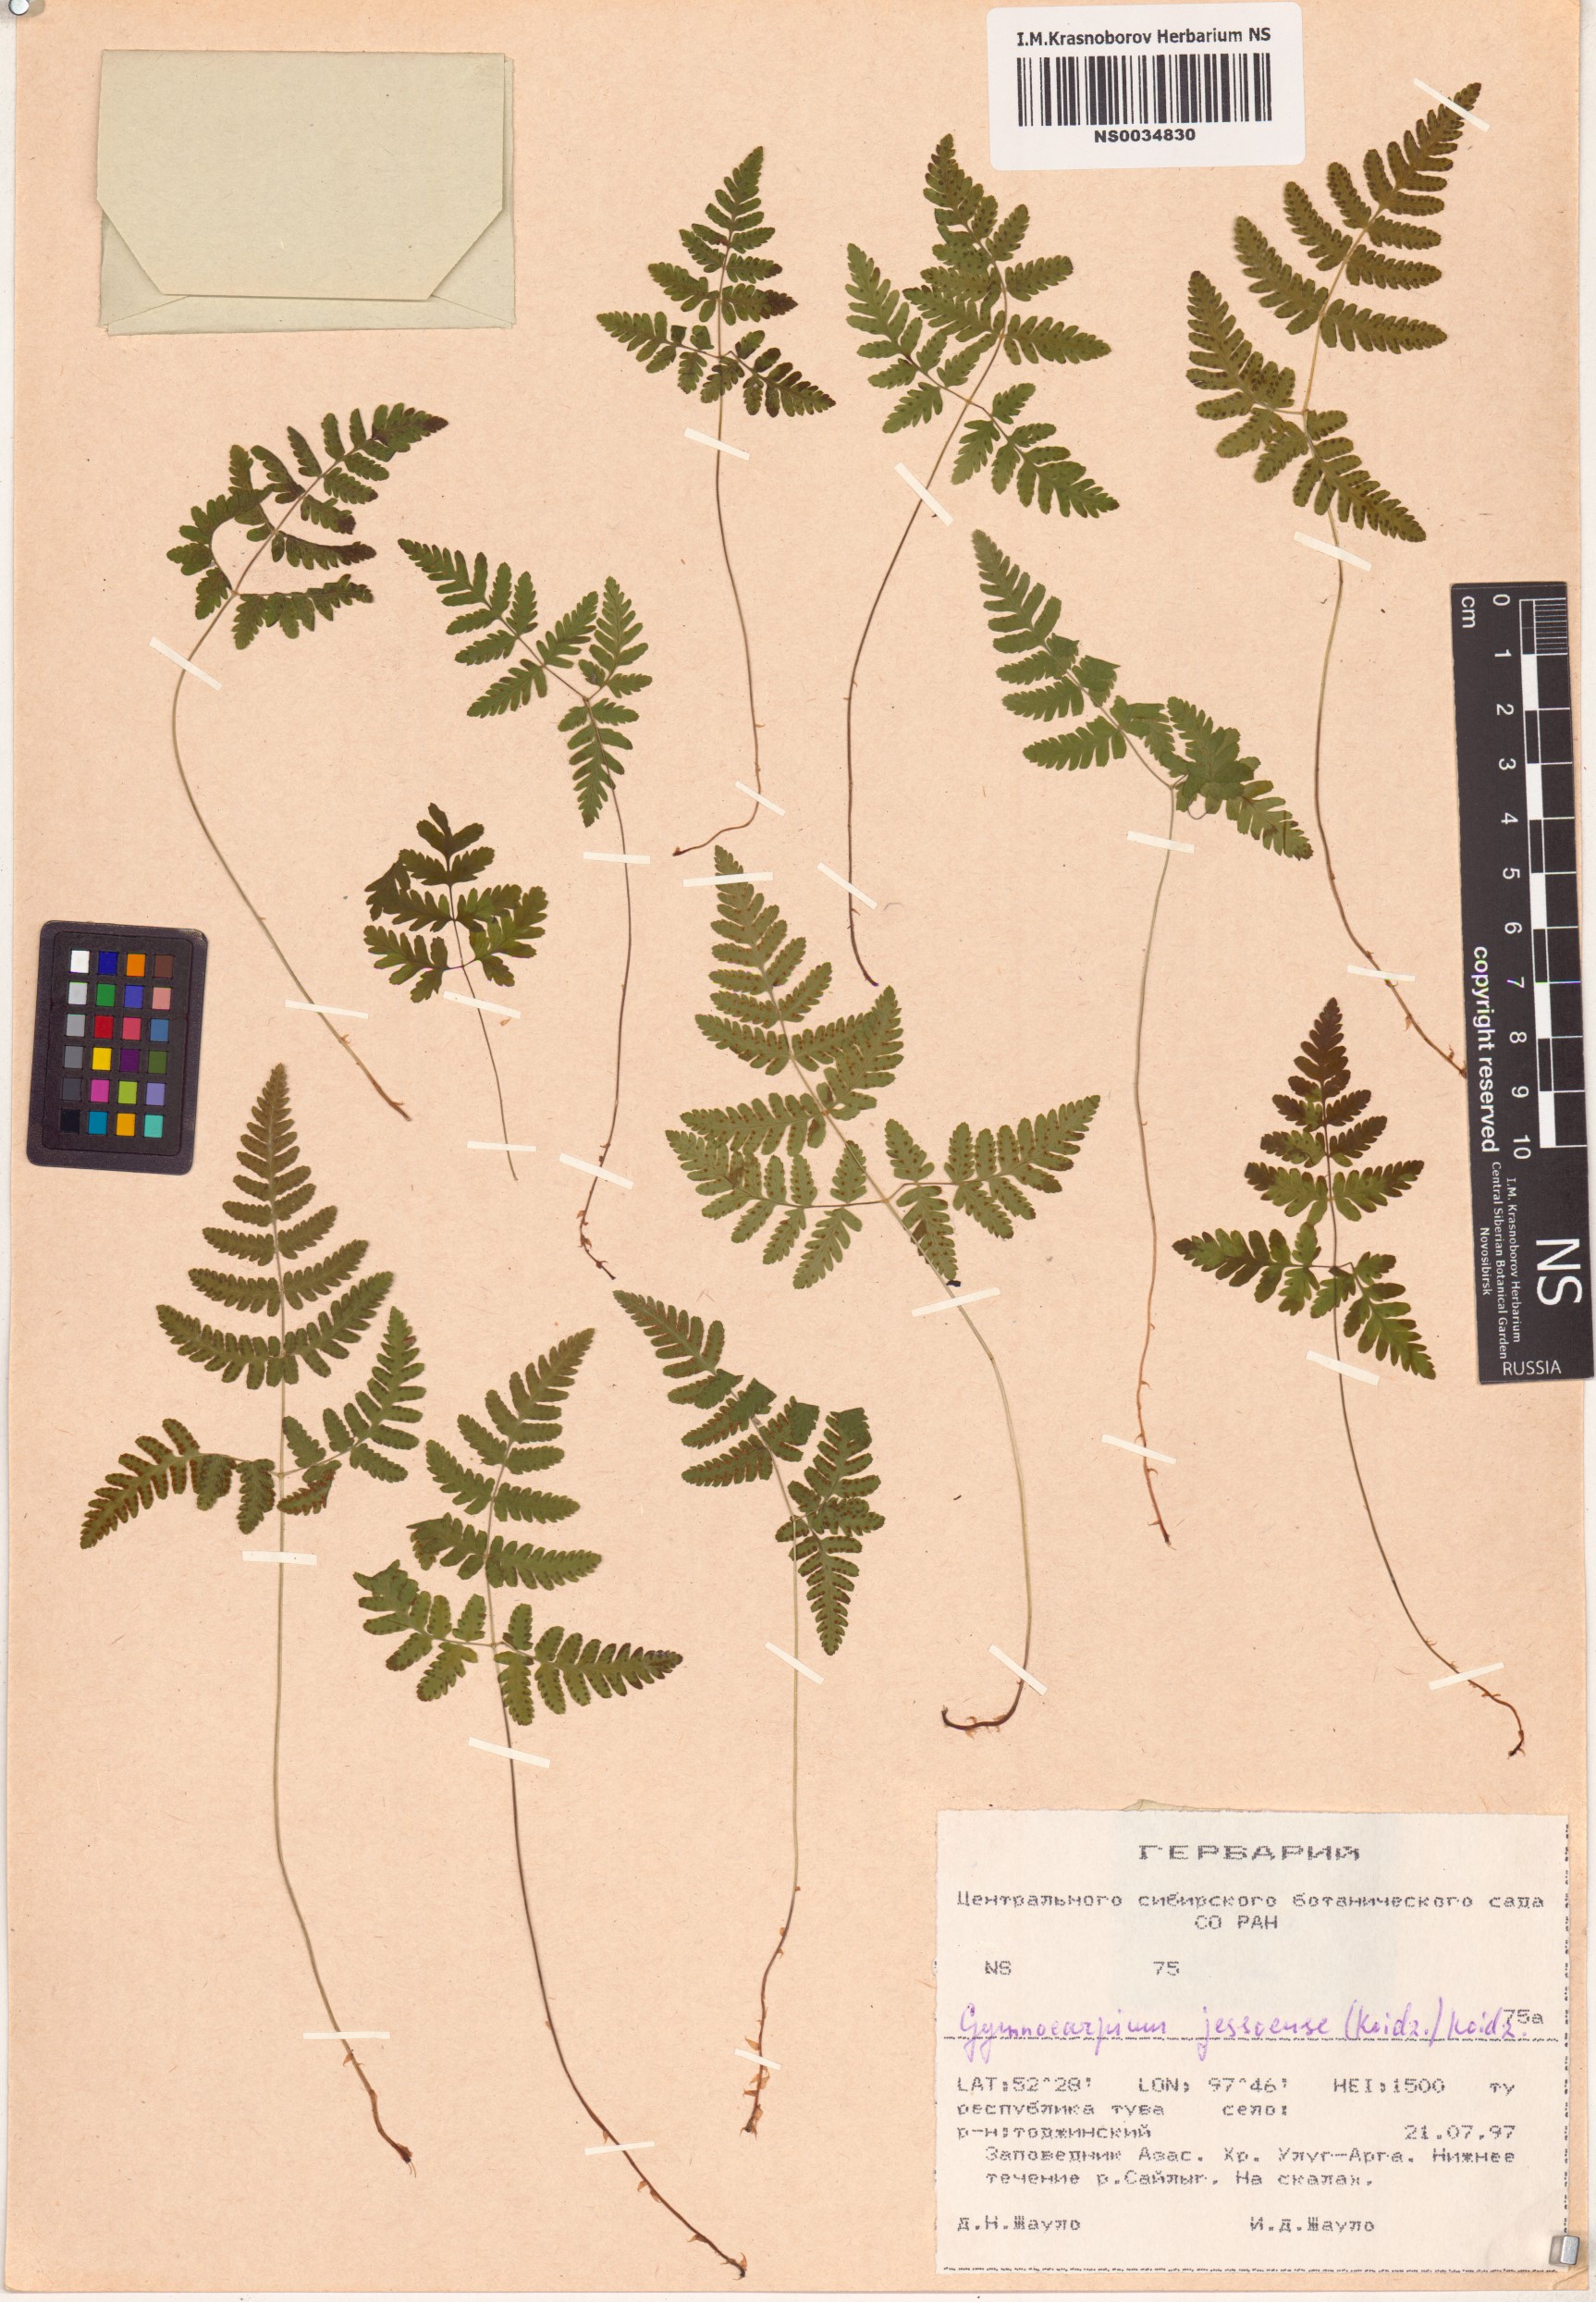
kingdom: Plantae
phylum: Tracheophyta
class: Polypodiopsida
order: Polypodiales
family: Cystopteridaceae
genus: Gymnocarpium
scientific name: Gymnocarpium jessoense
